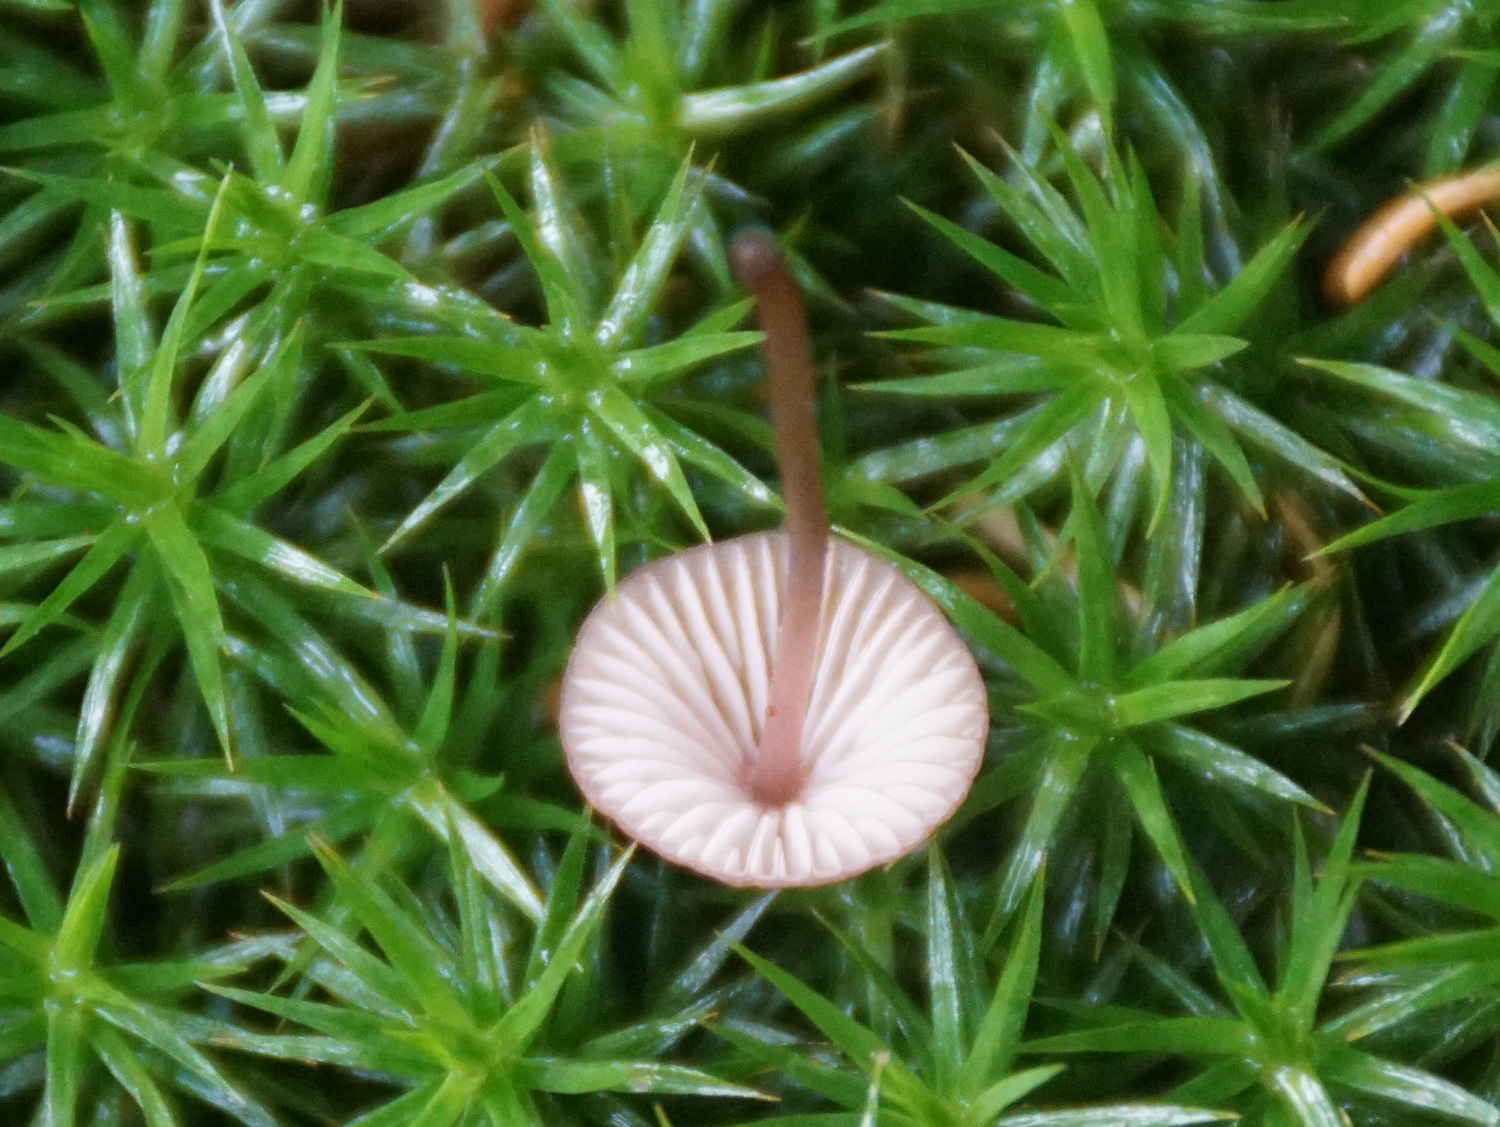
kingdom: Fungi
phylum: Basidiomycota
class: Agaricomycetes
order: Agaricales
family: Mycenaceae
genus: Mycena
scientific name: Mycena sanguinolenta
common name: rødmælket huesvamp
